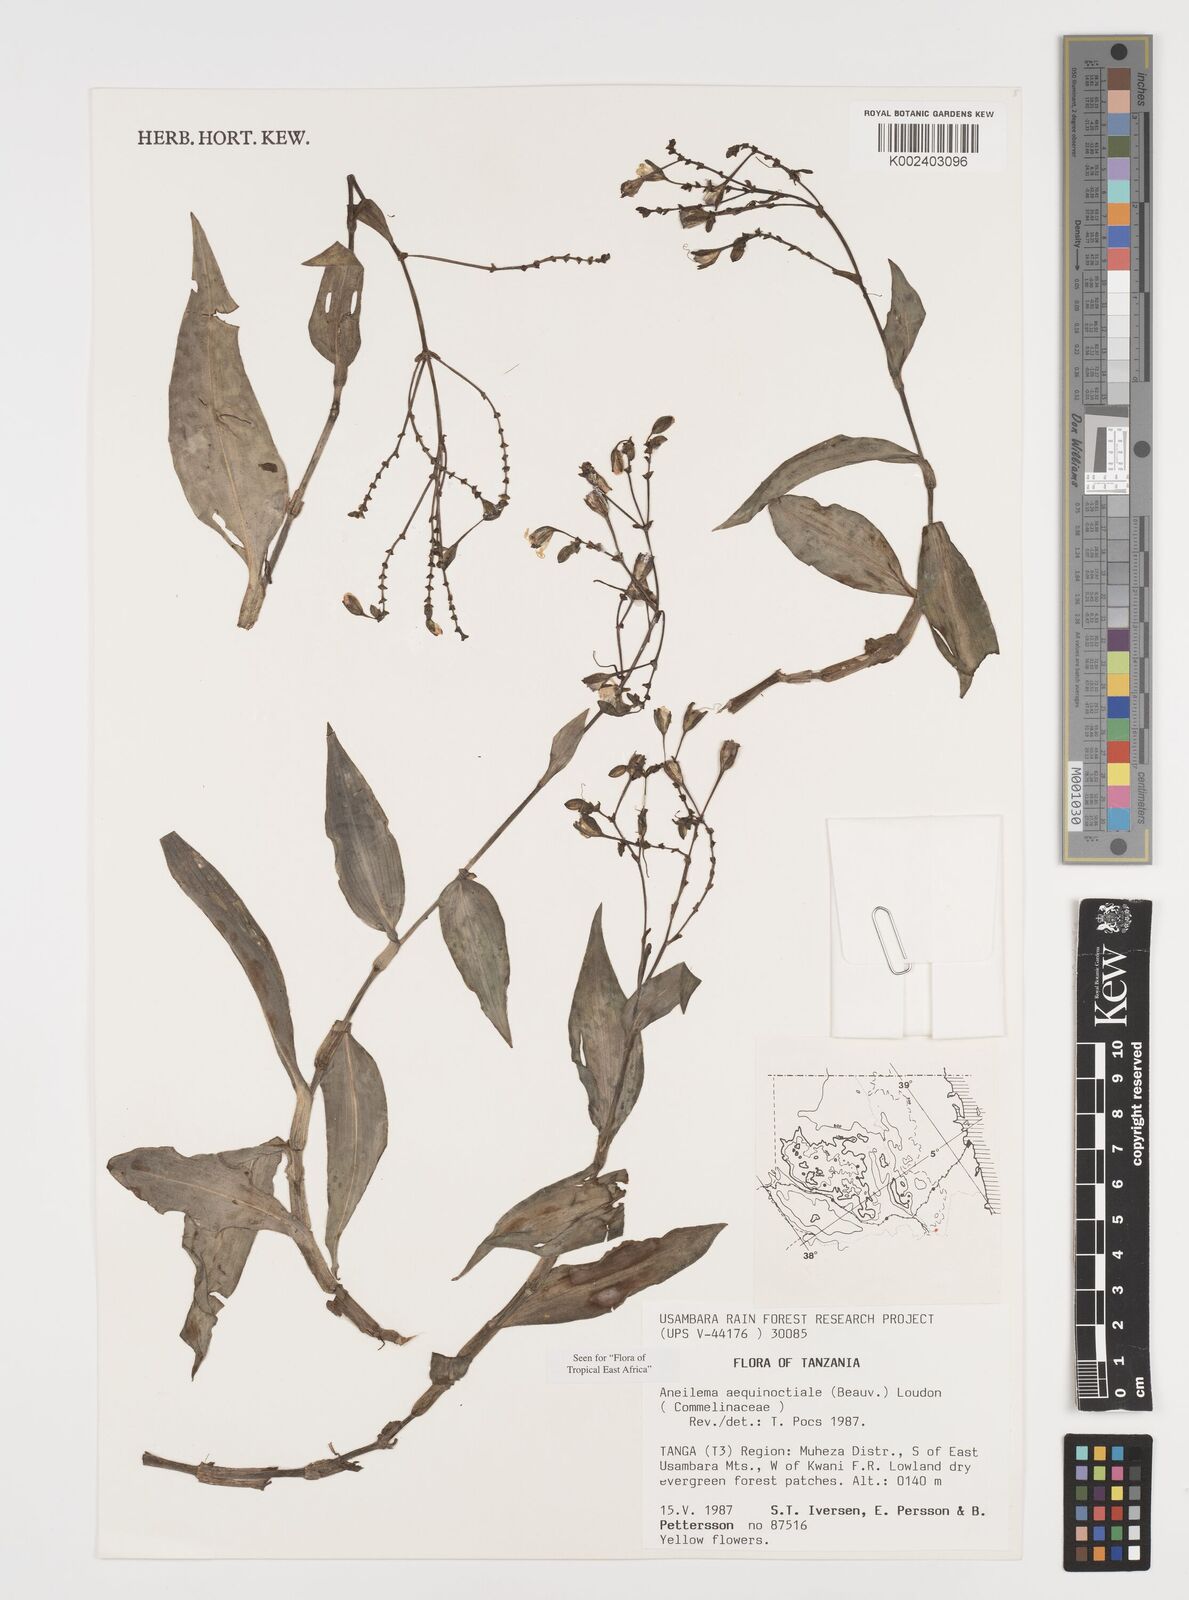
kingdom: Plantae
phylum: Tracheophyta
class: Liliopsida
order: Commelinales
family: Commelinaceae
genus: Aneilema
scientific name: Aneilema aequinoctiale
